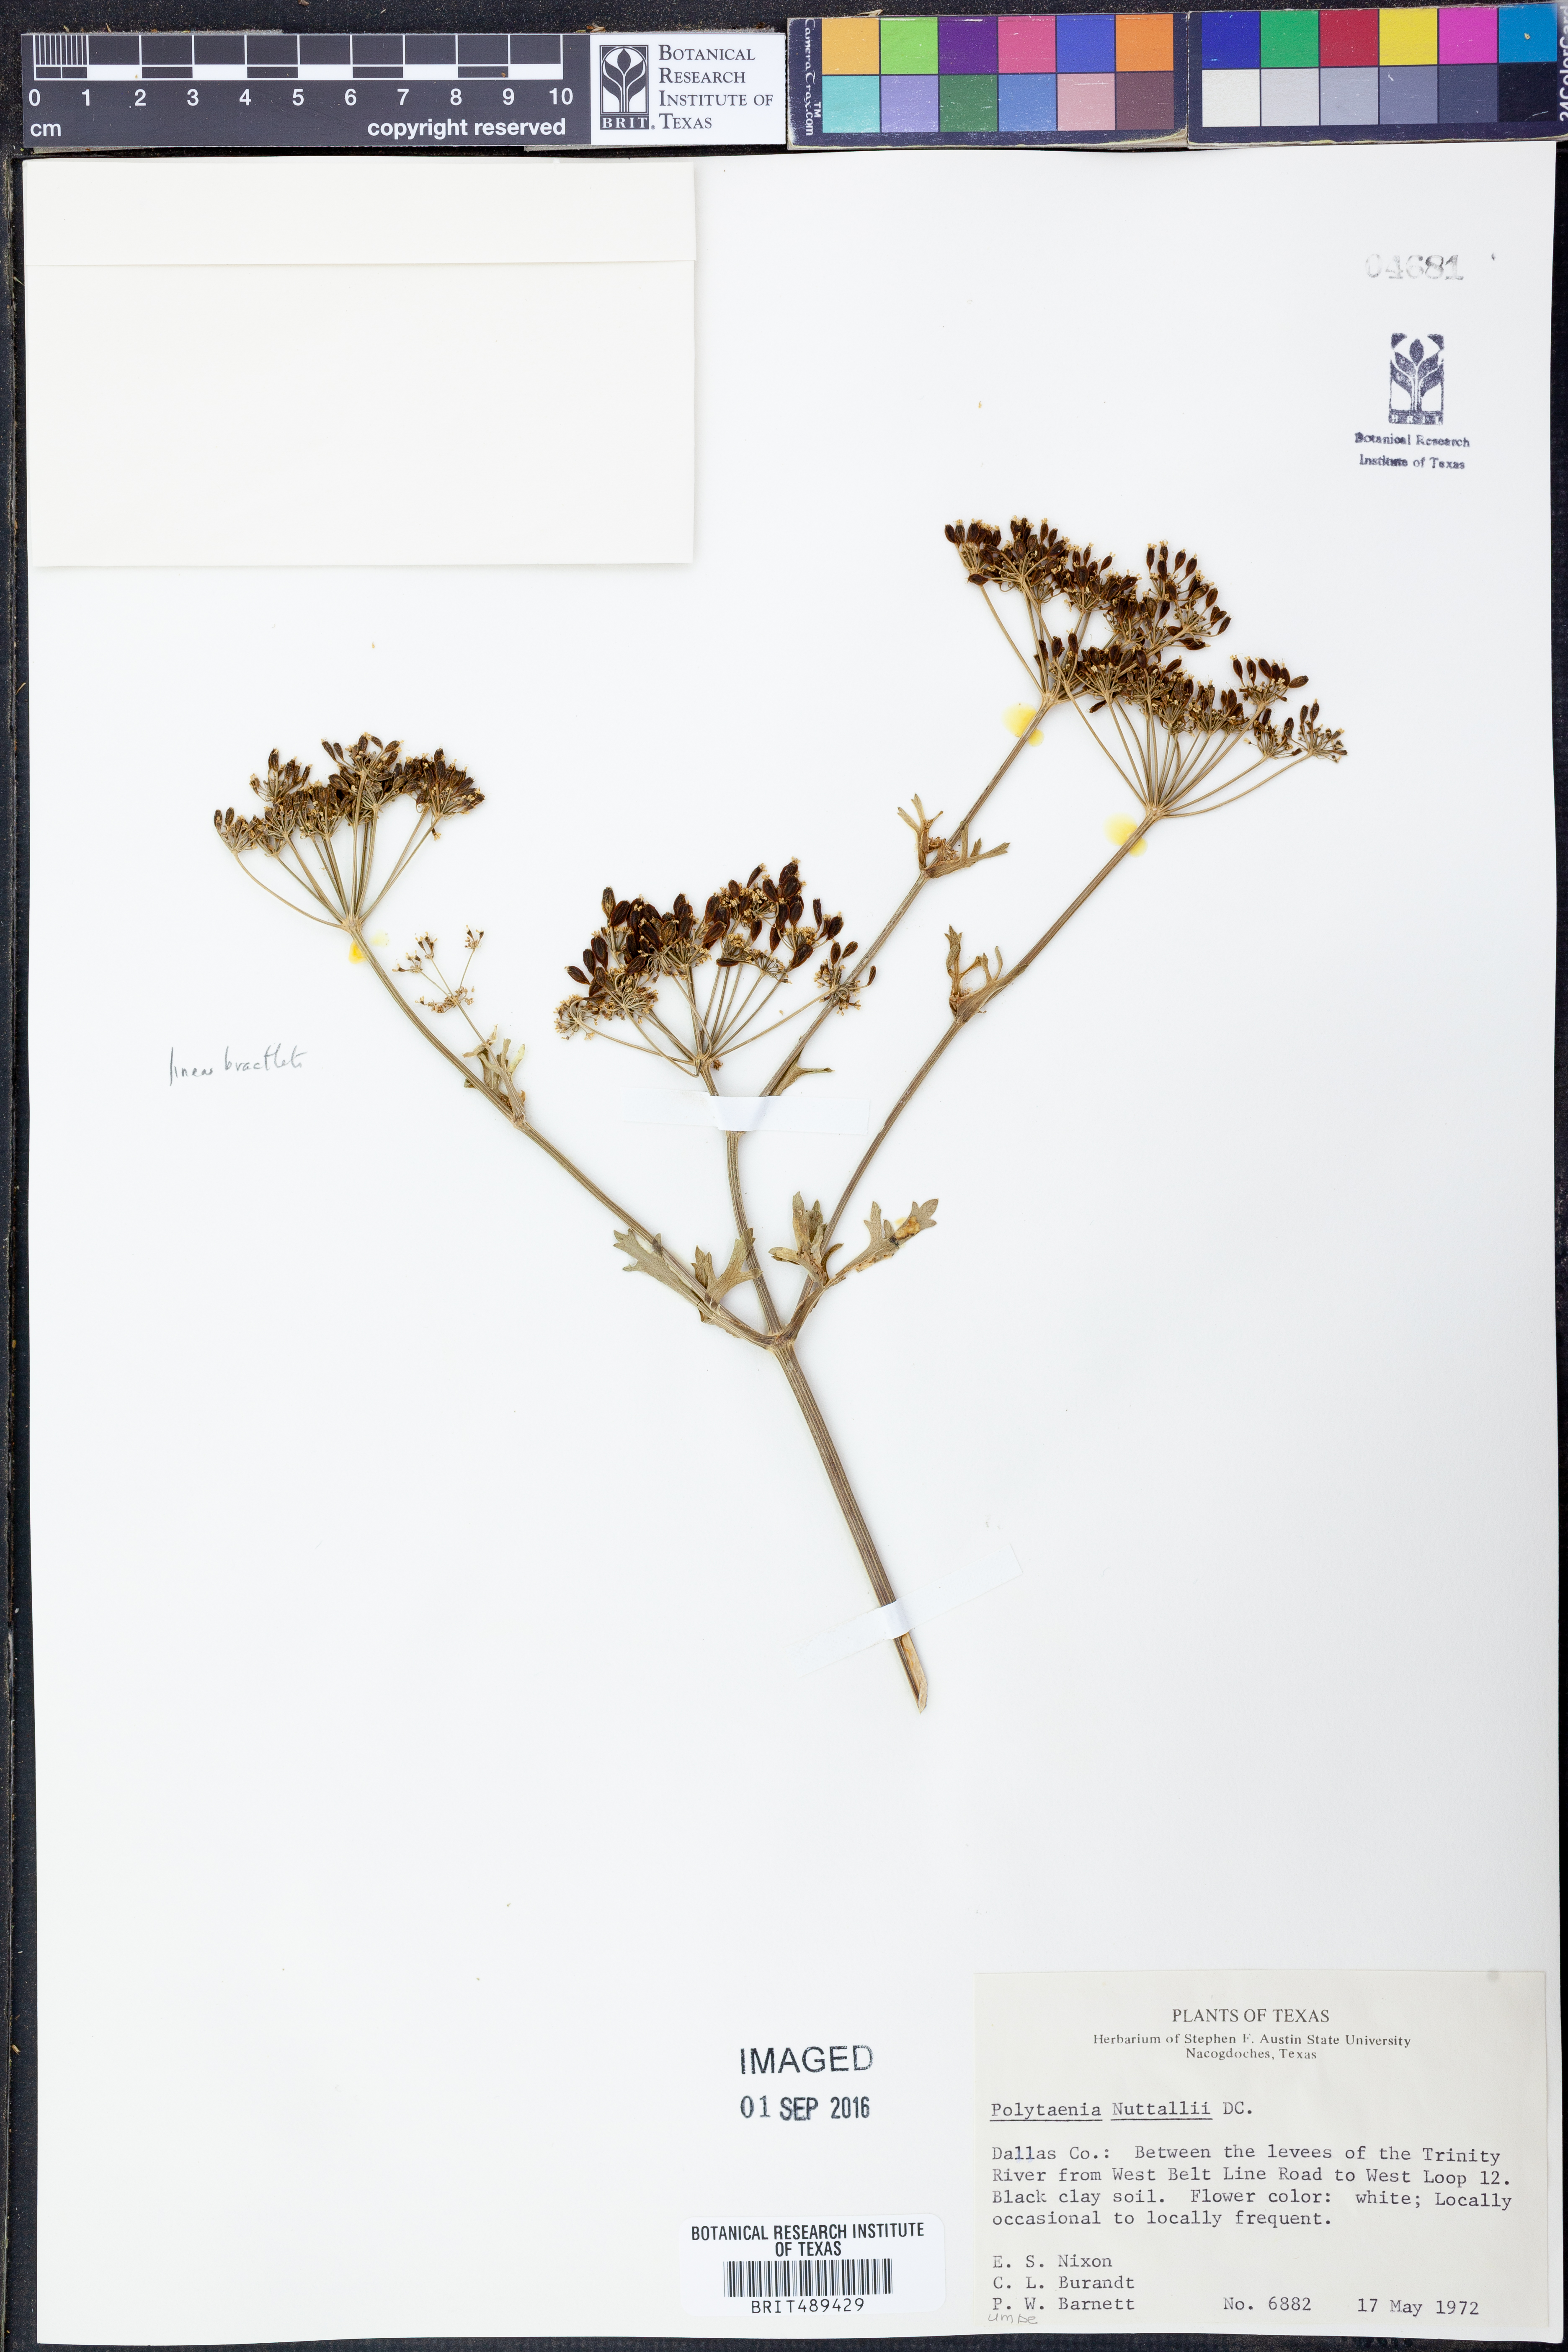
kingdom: Plantae
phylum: Tracheophyta
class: Magnoliopsida
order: Apiales
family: Apiaceae
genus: Polytaenia
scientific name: Polytaenia nuttallii
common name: Prairie-parsley
